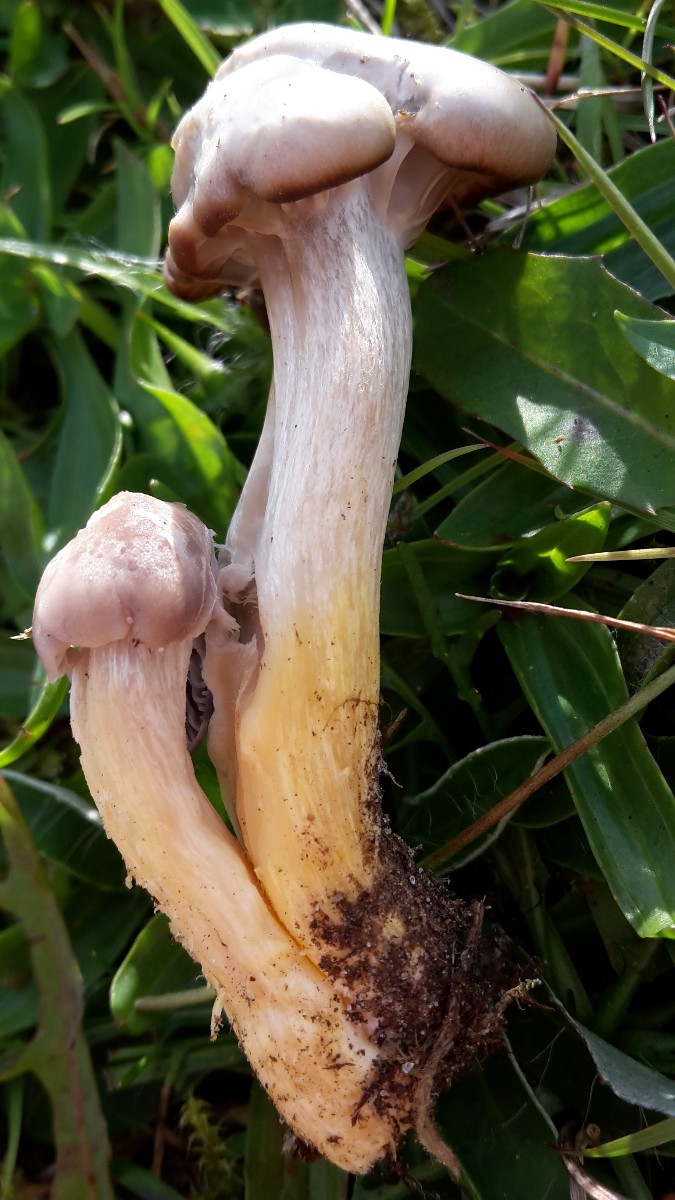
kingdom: Fungi
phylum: Basidiomycota
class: Agaricomycetes
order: Agaricales
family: Hygrophoraceae
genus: Cuphophyllus
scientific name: Cuphophyllus flavipes
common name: gulfodet vokshat
